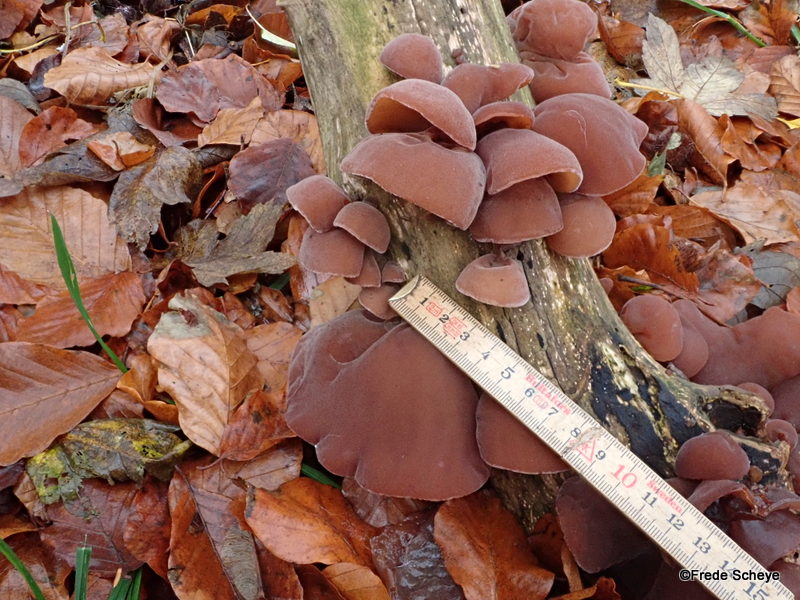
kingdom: Fungi
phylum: Basidiomycota
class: Agaricomycetes
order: Auriculariales
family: Auriculariaceae
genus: Auricularia
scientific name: Auricularia auricula-judae
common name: almindelig judasøre
